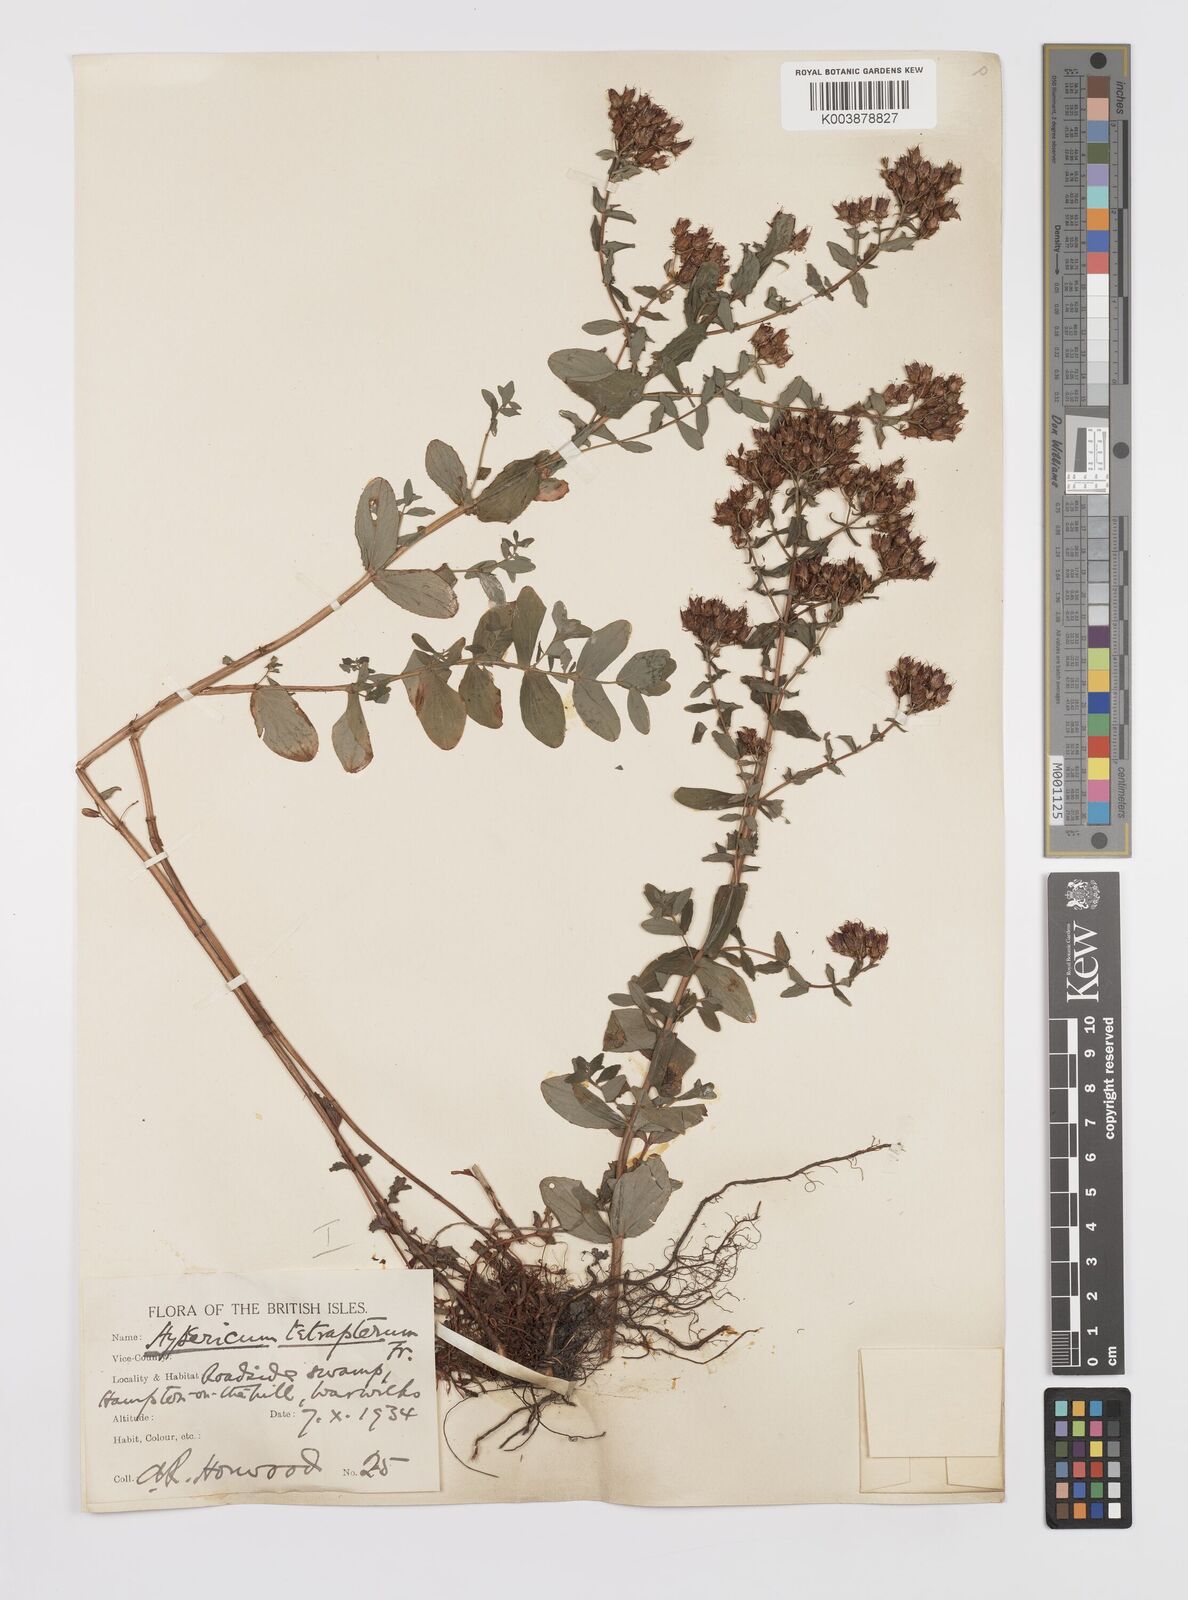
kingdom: Plantae
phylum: Tracheophyta
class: Magnoliopsida
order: Malpighiales
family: Hypericaceae
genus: Hypericum
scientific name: Hypericum tetrapterum
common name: Square-stalked st. john's-wort
